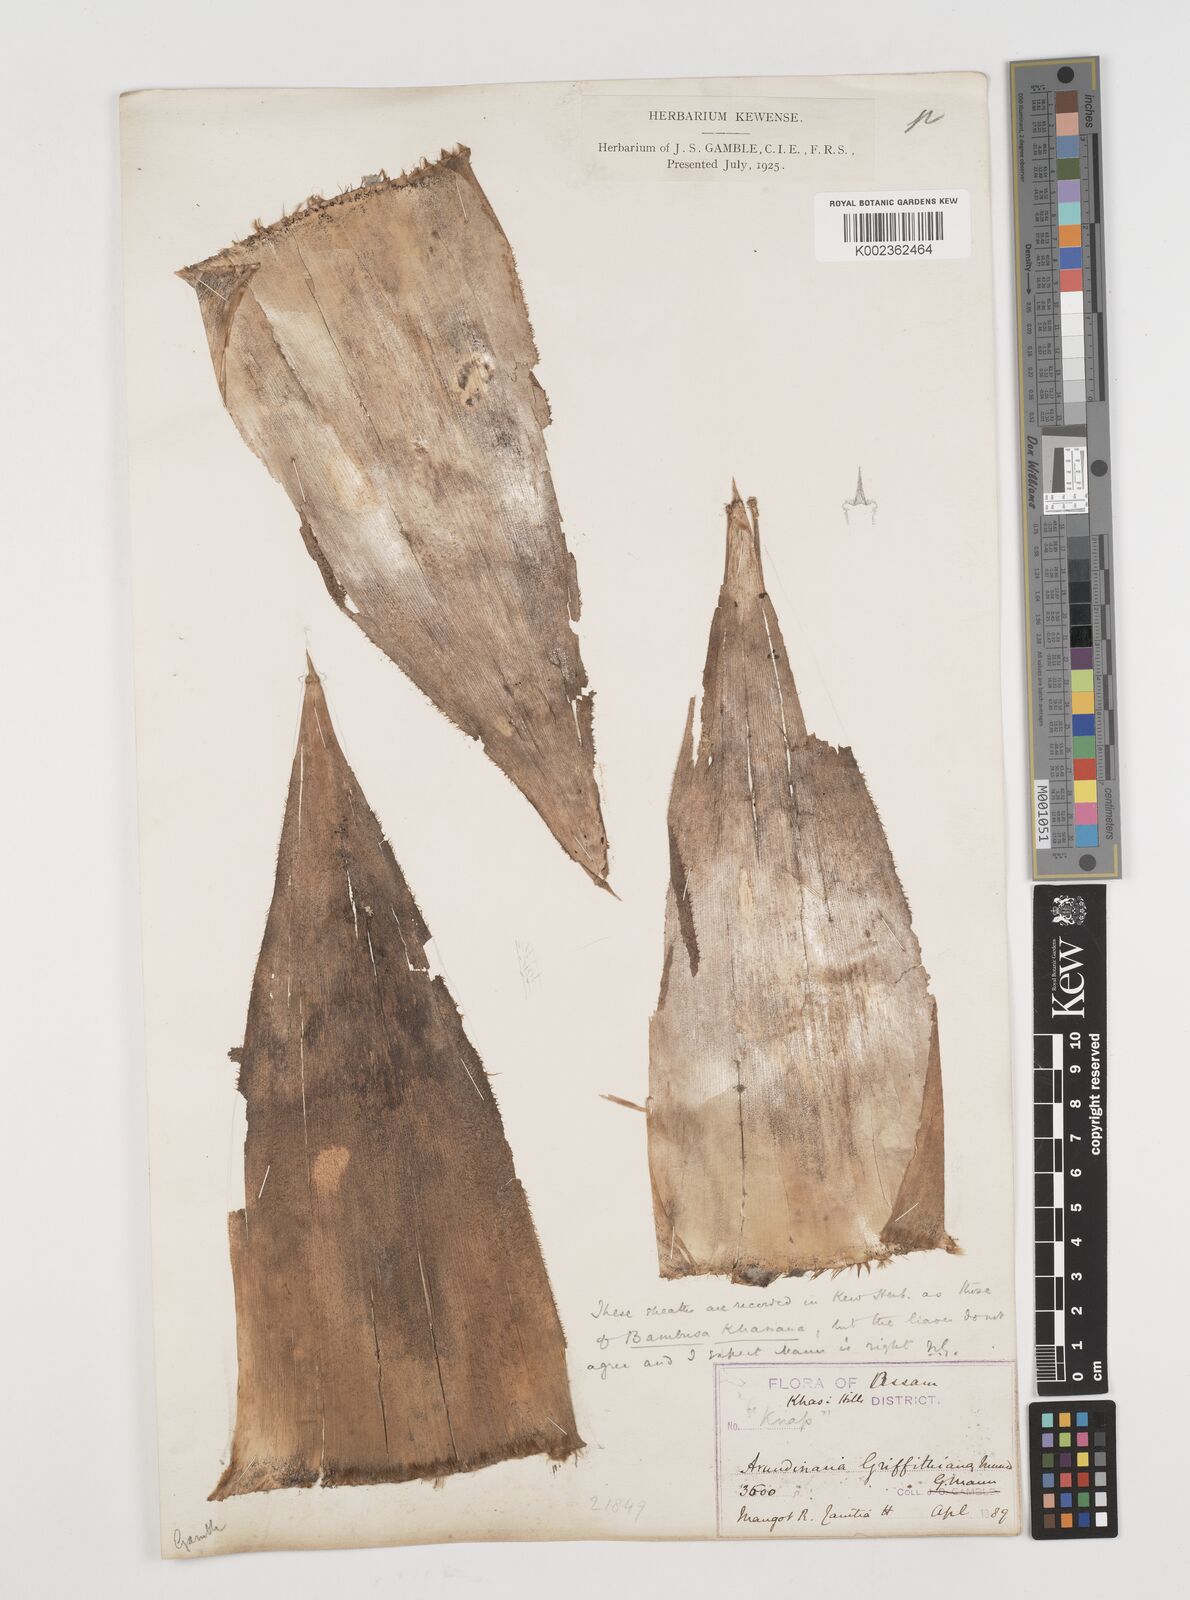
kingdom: Plantae
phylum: Tracheophyta
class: Liliopsida
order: Poales
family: Poaceae
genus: Chimonocalamus
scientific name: Chimonocalamus griffithianus
